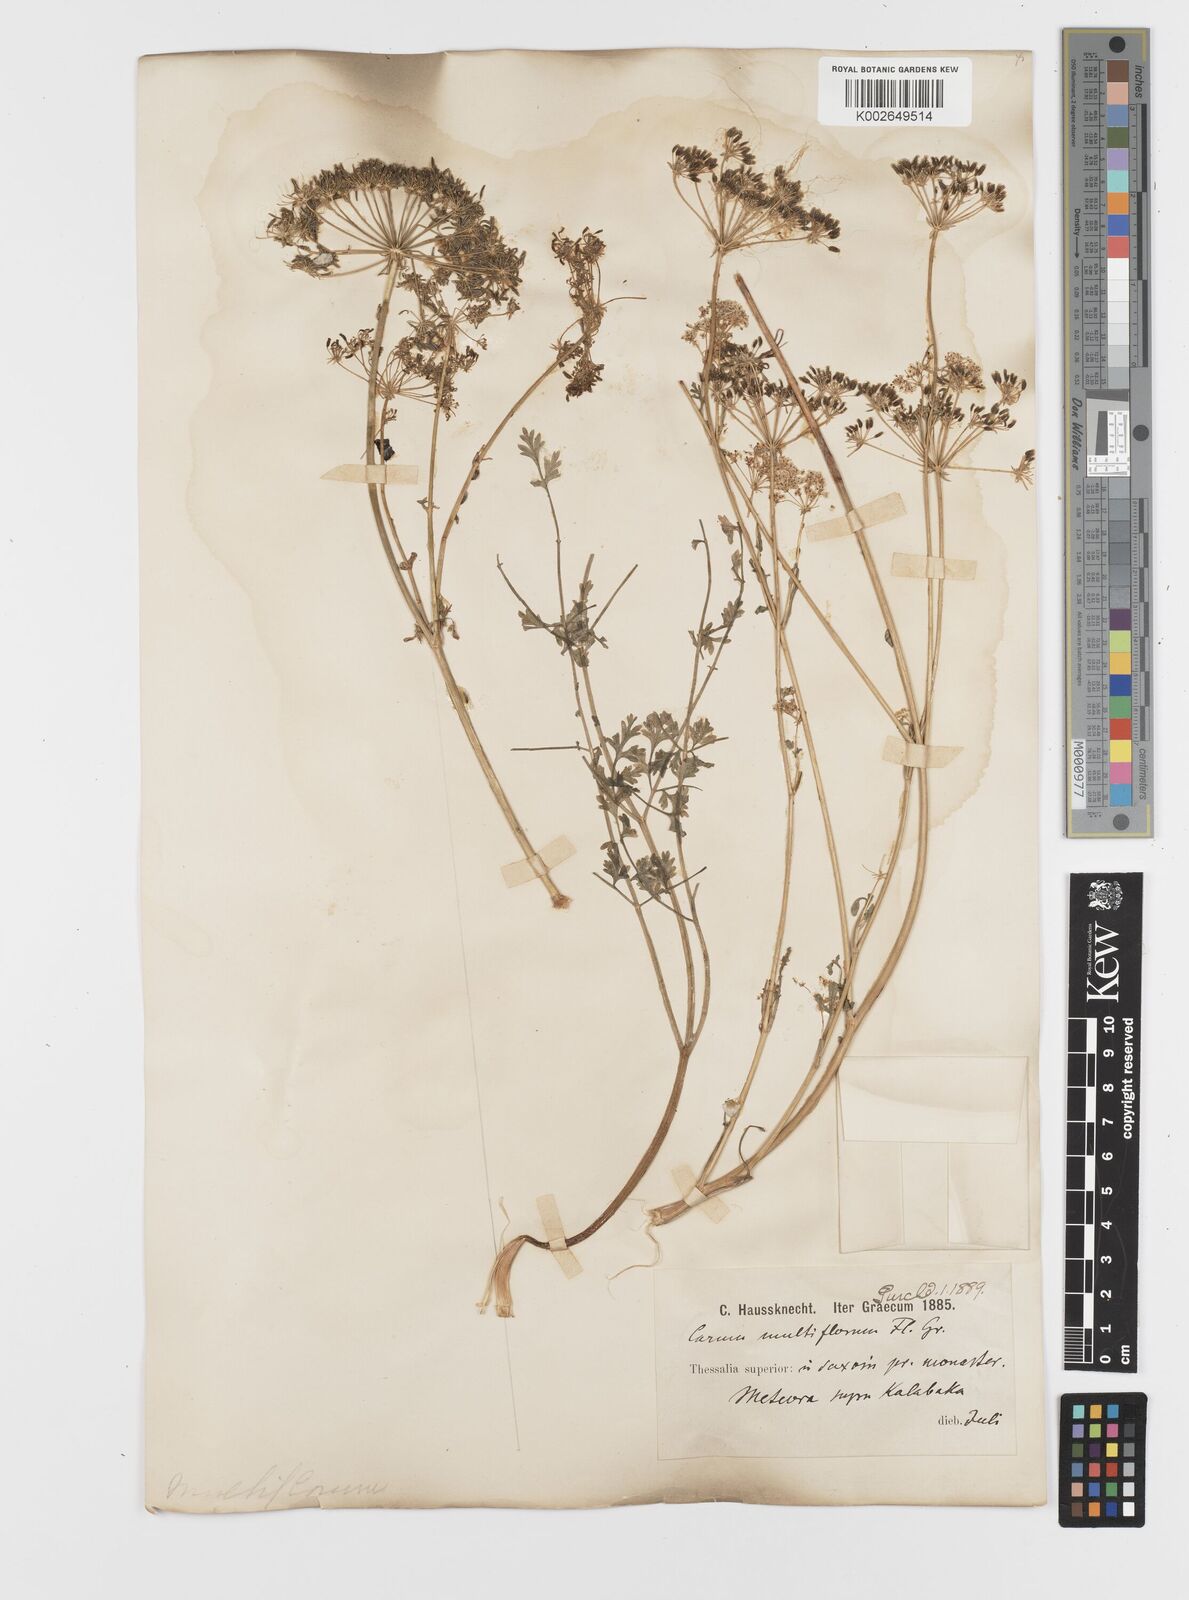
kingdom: Plantae
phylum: Tracheophyta
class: Magnoliopsida
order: Apiales
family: Apiaceae
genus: Hellenocarum
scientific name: Hellenocarum multiflorum
